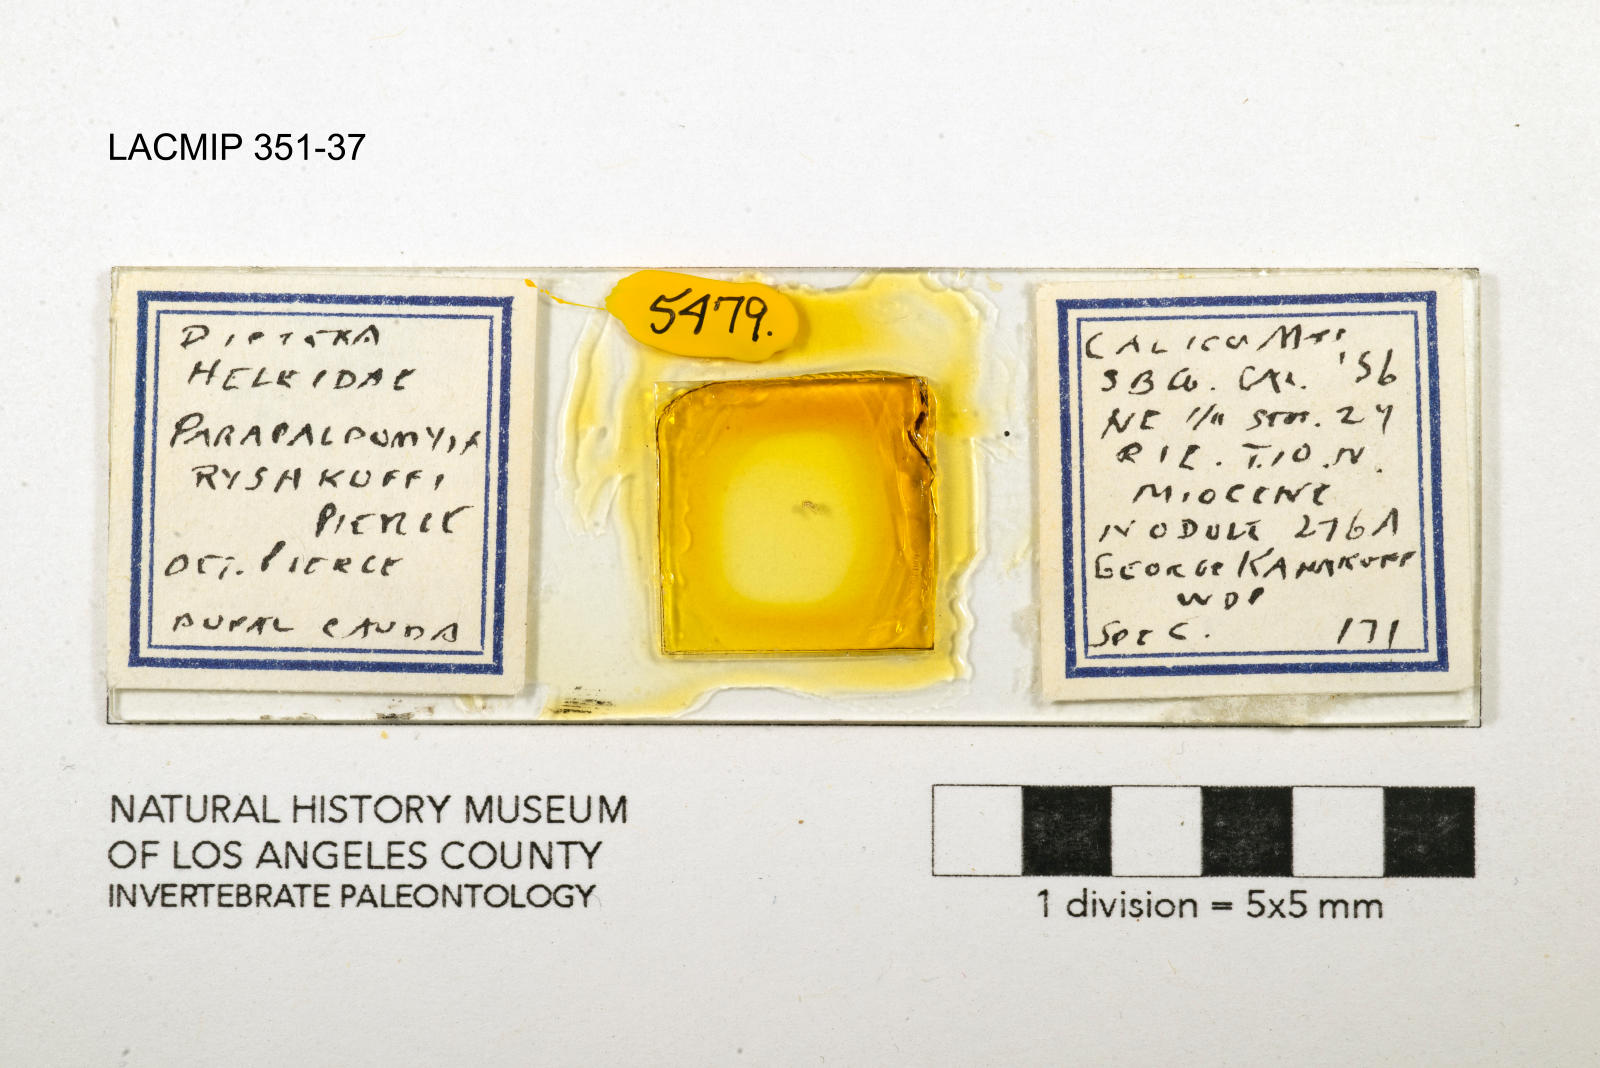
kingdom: Animalia
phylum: Arthropoda
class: Insecta
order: Diptera
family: Ceratopogonidae
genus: Palpomyia
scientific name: Palpomyia ryshkoffi
